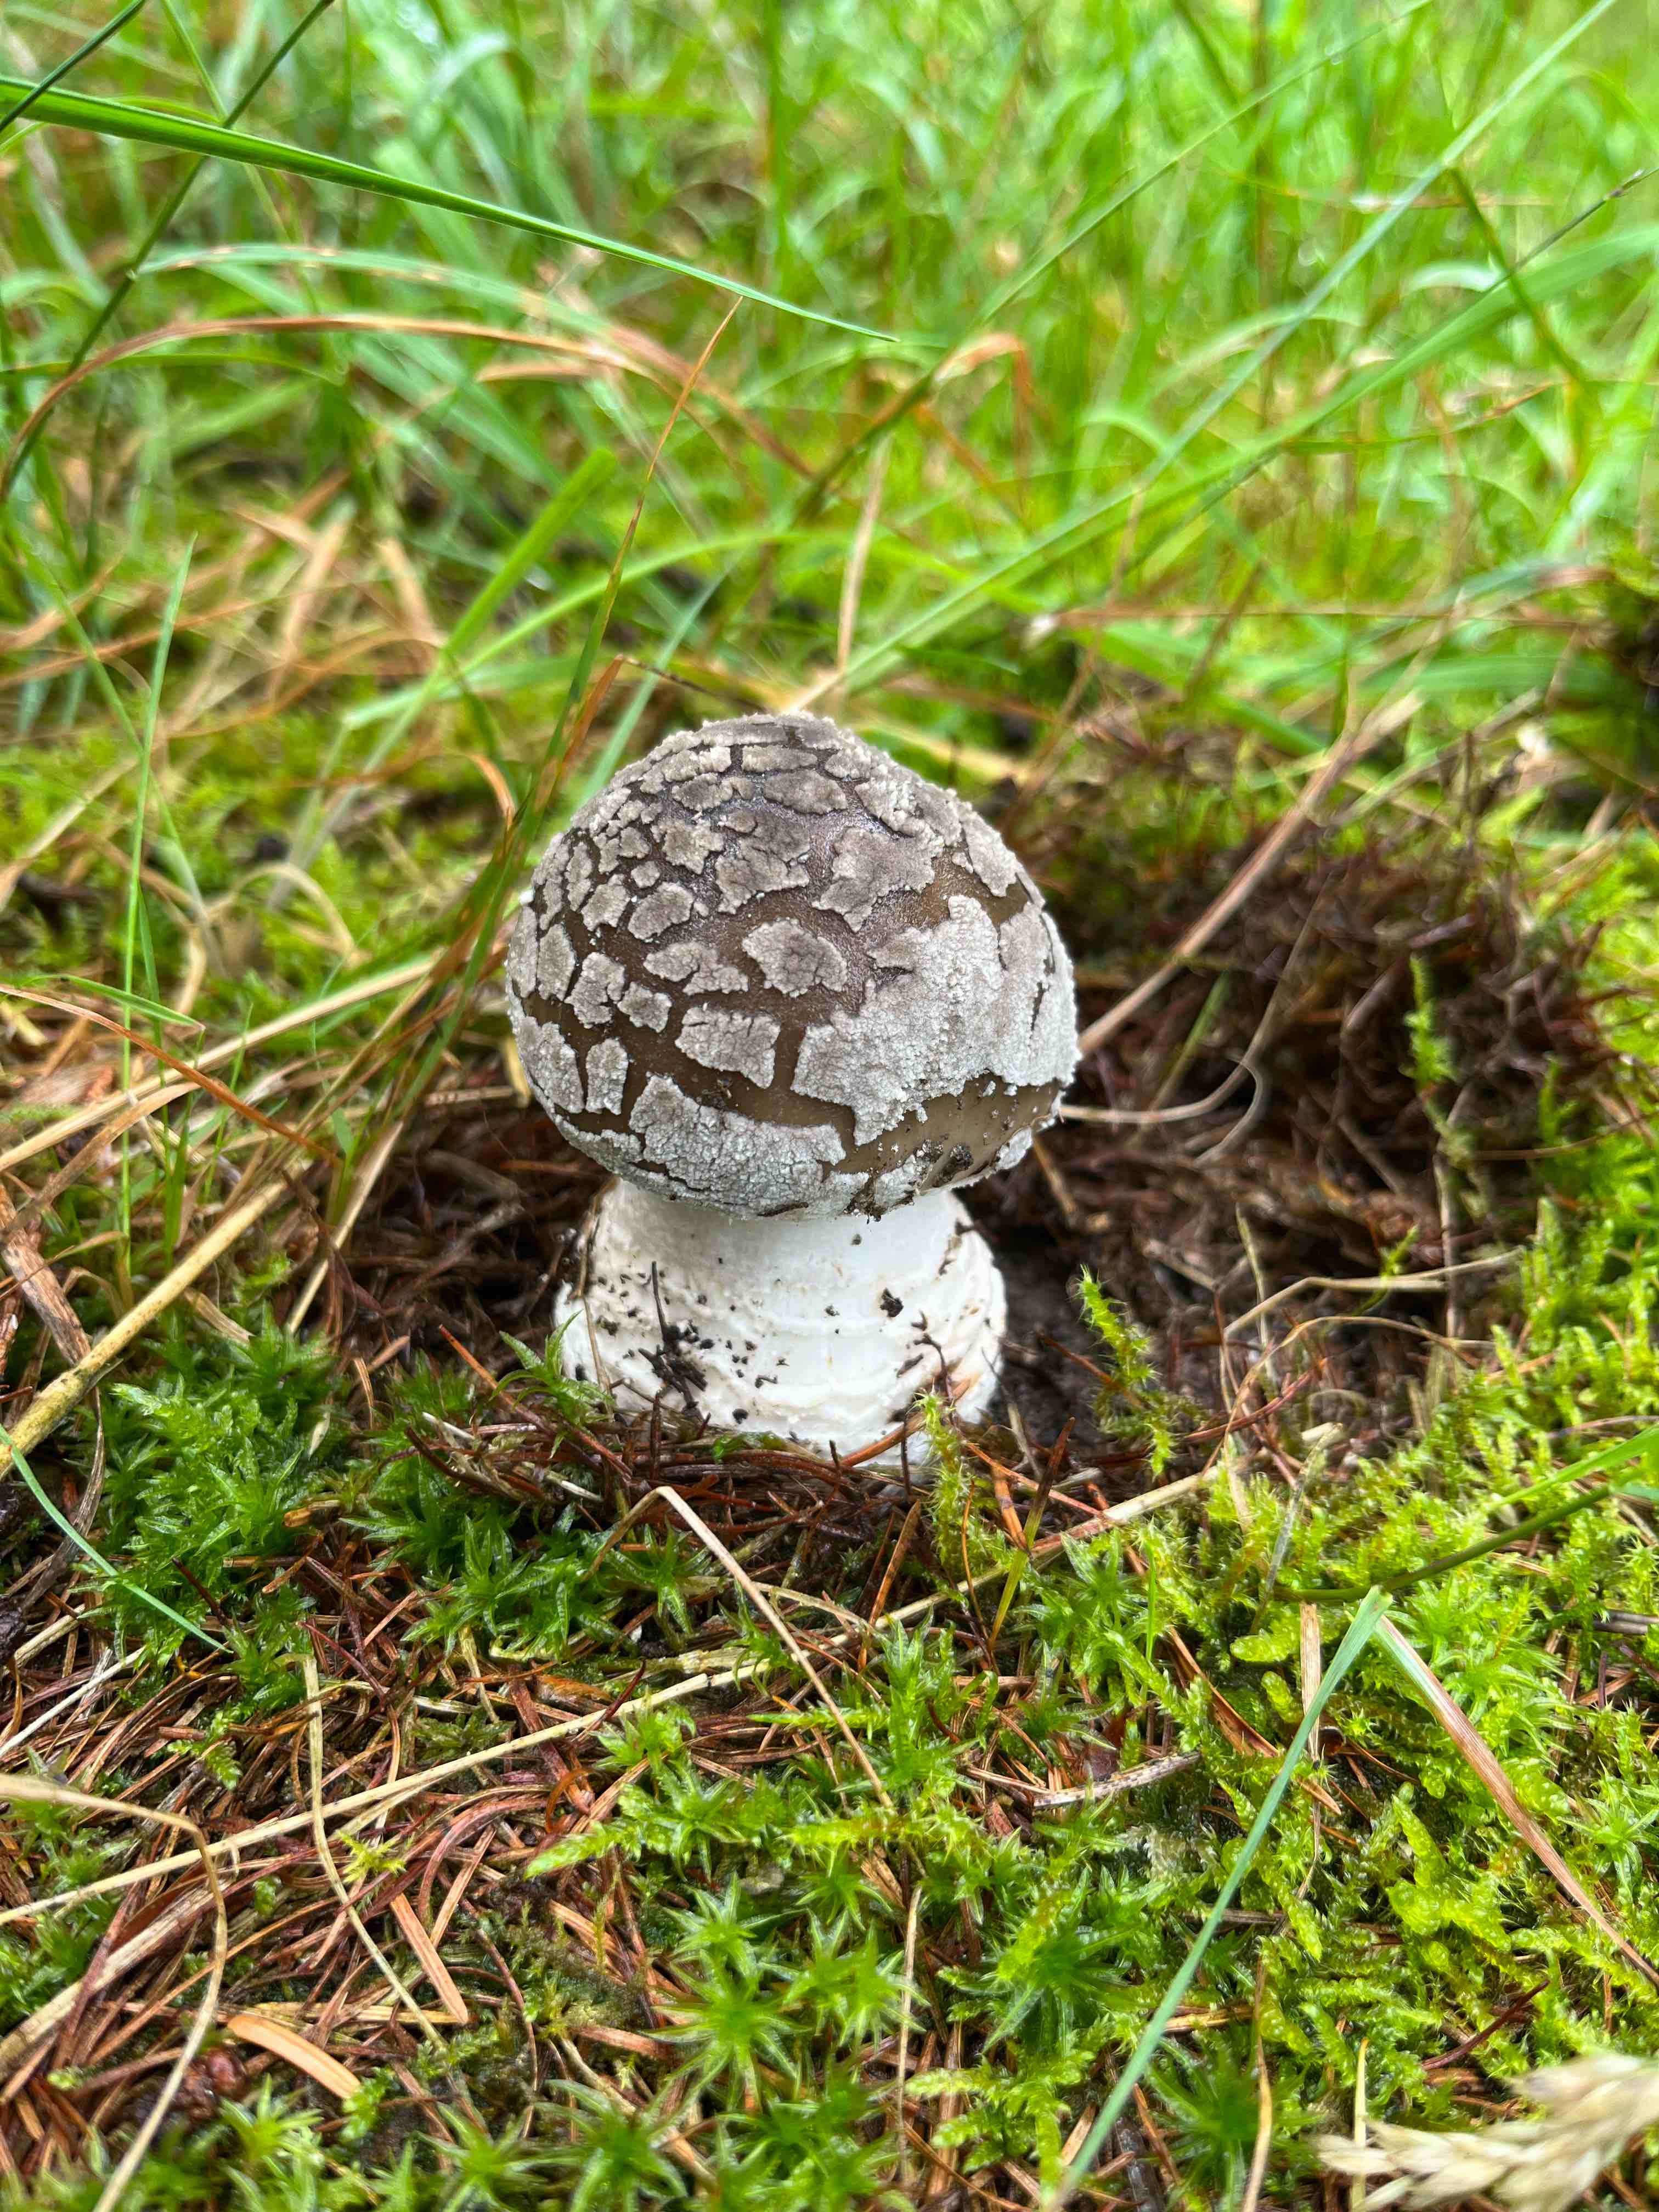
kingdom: Fungi
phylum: Basidiomycota
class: Agaricomycetes
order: Agaricales
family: Amanitaceae
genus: Amanita
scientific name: Amanita
